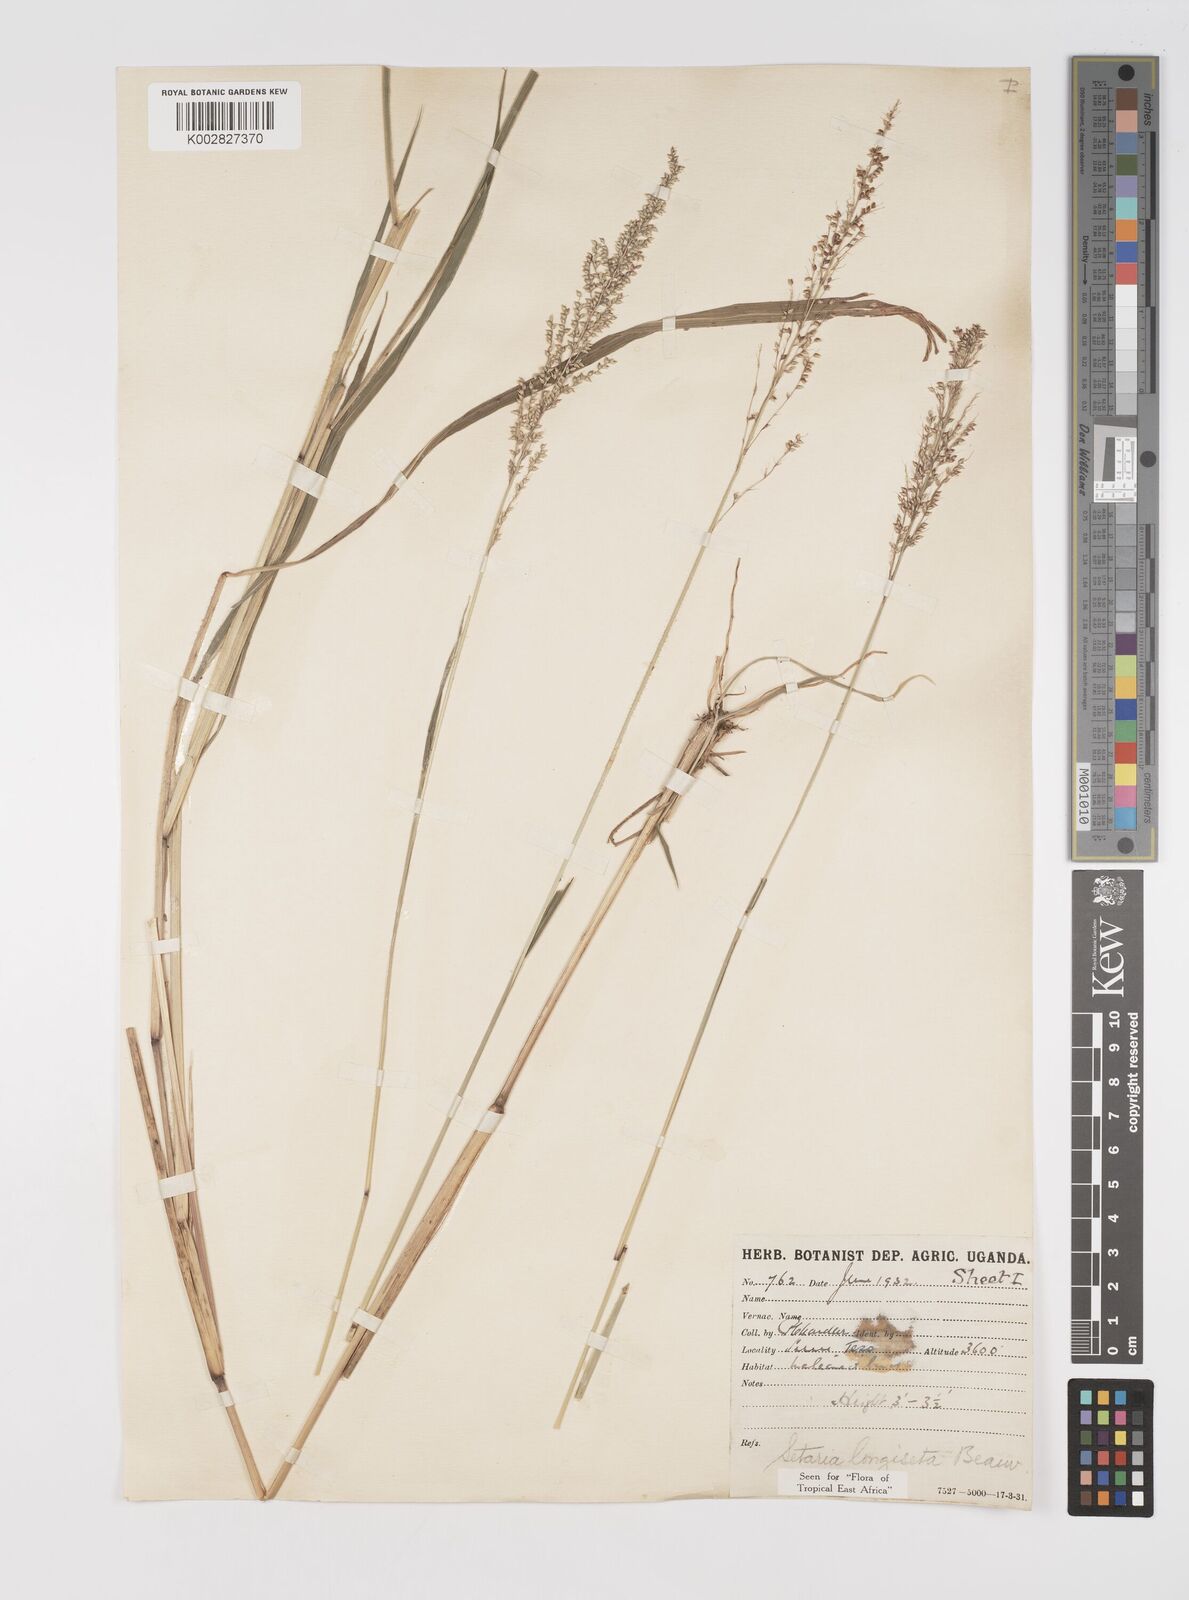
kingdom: Plantae
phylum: Tracheophyta
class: Liliopsida
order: Poales
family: Poaceae
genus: Setaria
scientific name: Setaria longiseta
